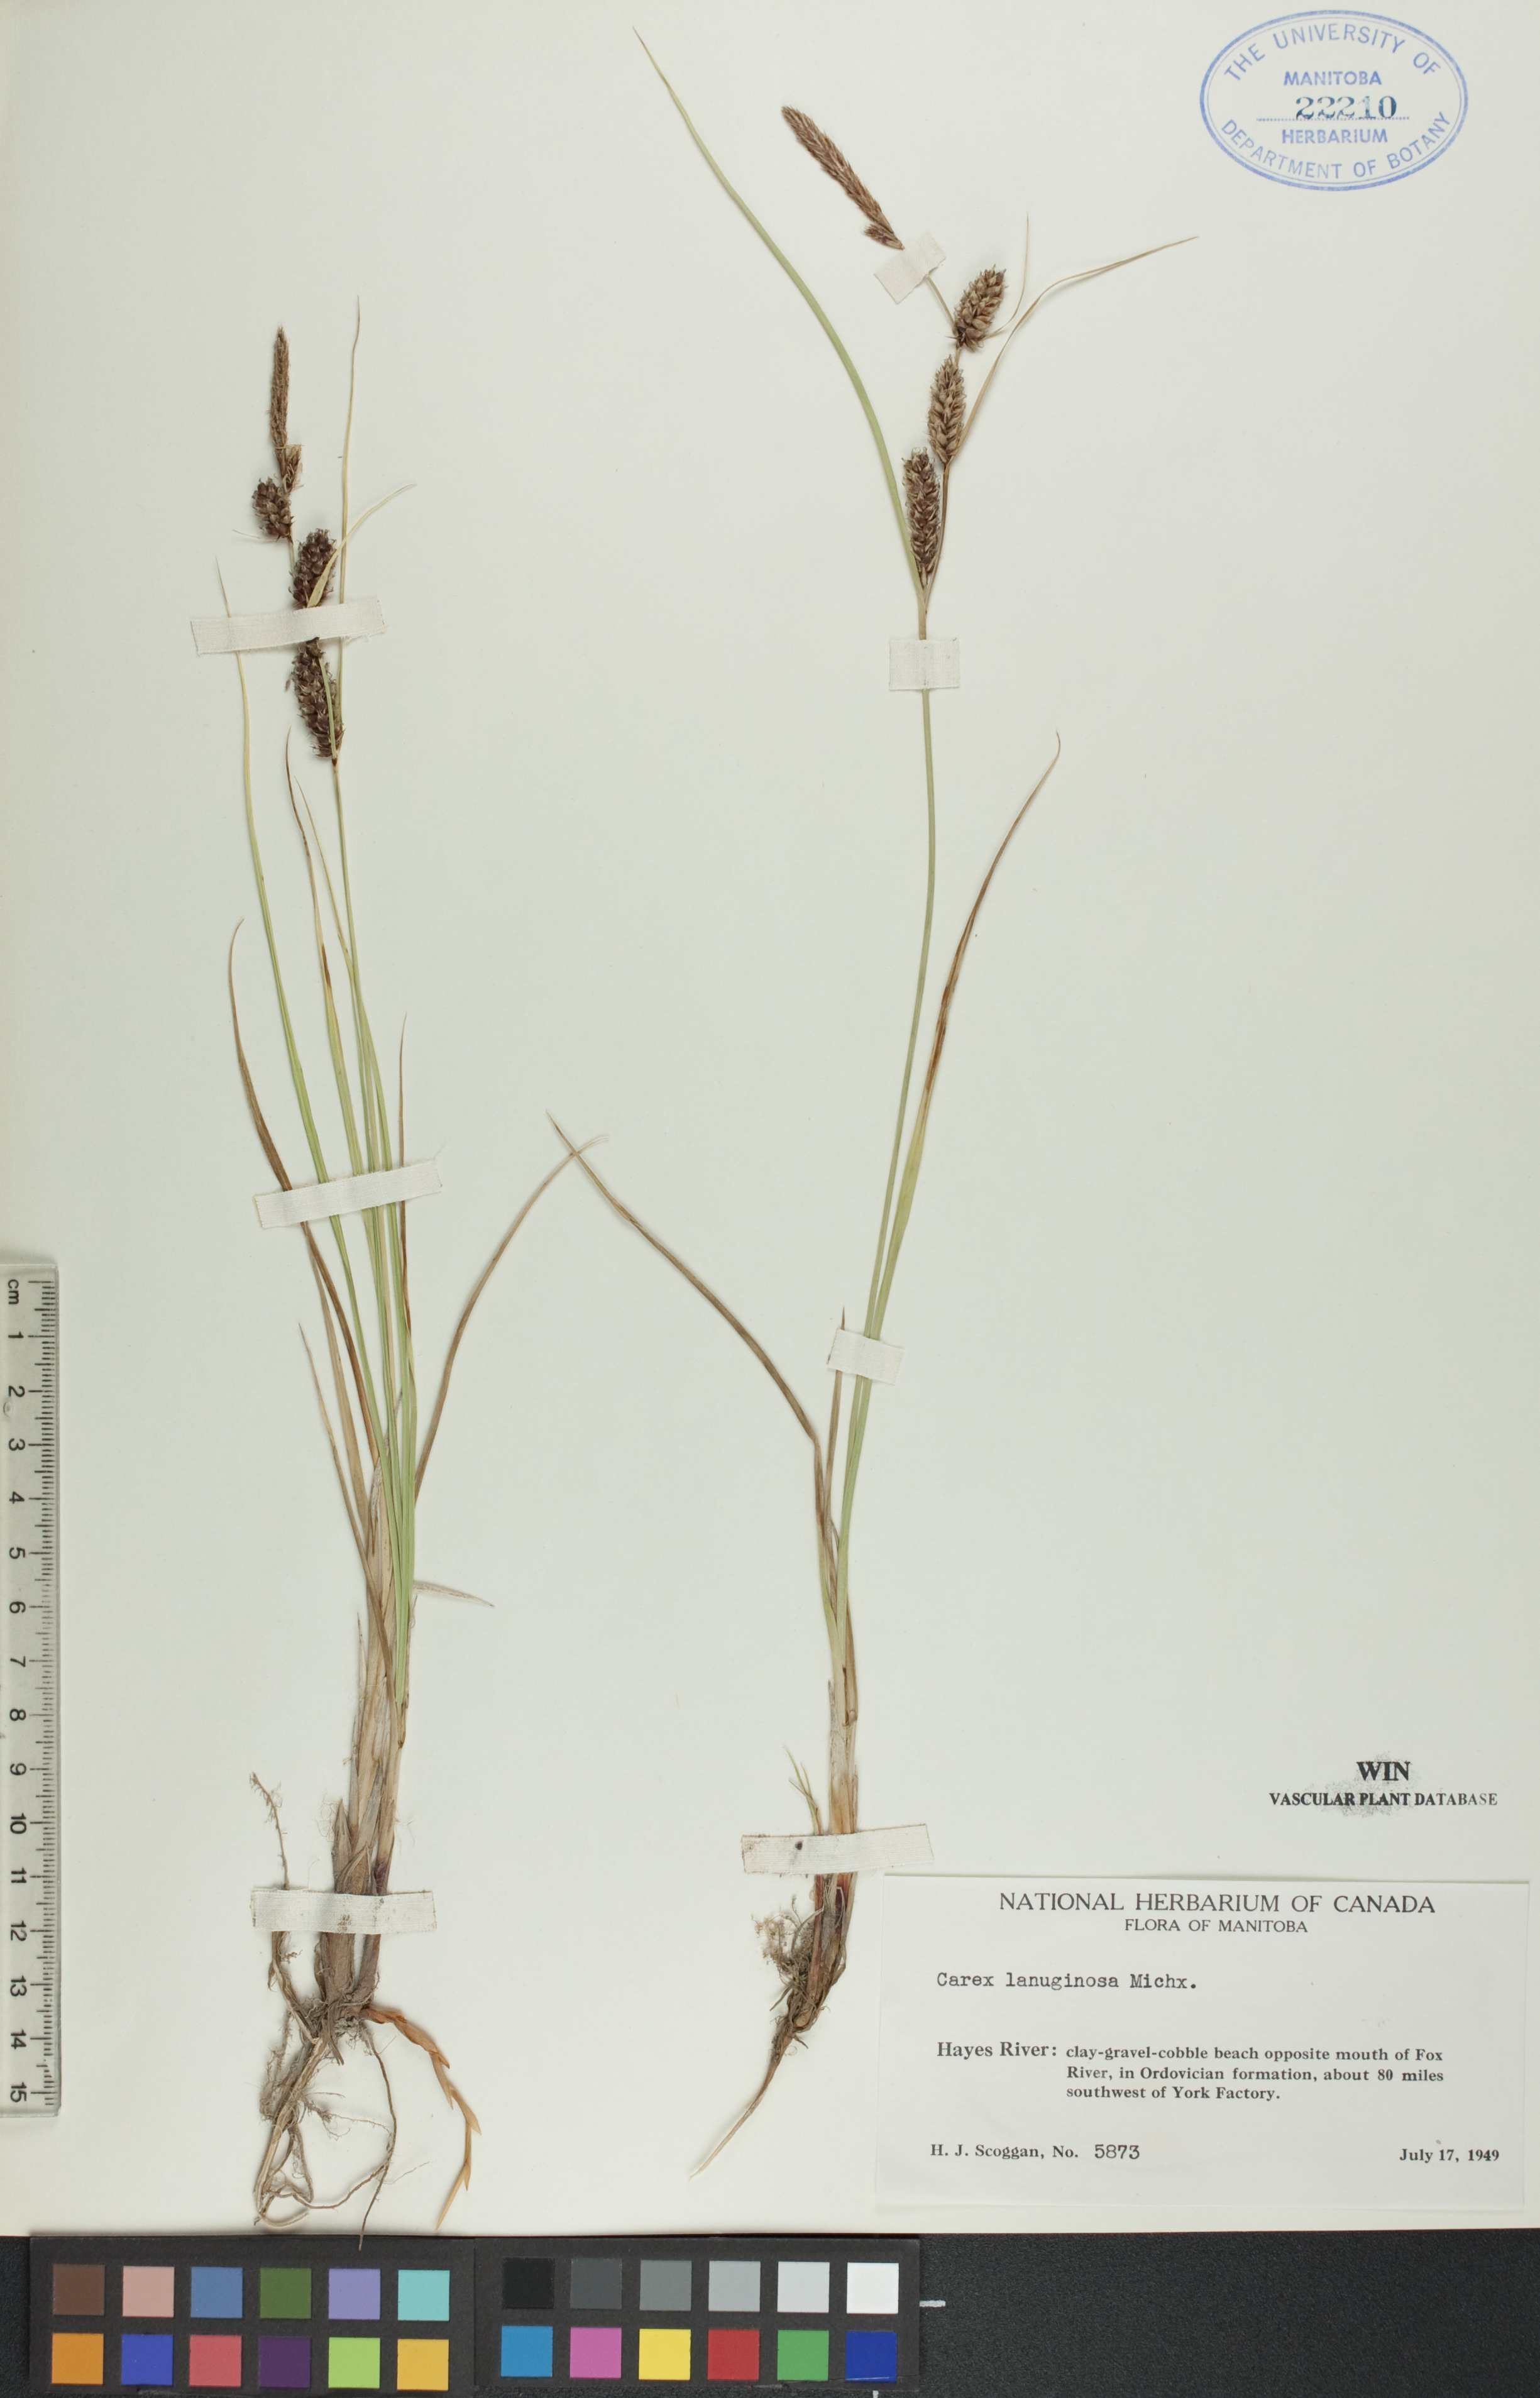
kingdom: Plantae
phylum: Tracheophyta
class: Liliopsida
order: Poales
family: Cyperaceae
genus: Carex
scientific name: Carex lasiocarpa
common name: Slender sedge
